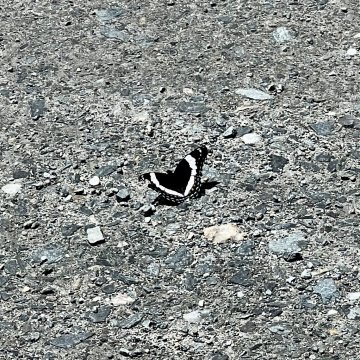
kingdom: Animalia
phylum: Arthropoda
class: Insecta
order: Lepidoptera
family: Nymphalidae
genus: Limenitis
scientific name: Limenitis arthemis
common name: Red-spotted Admiral
